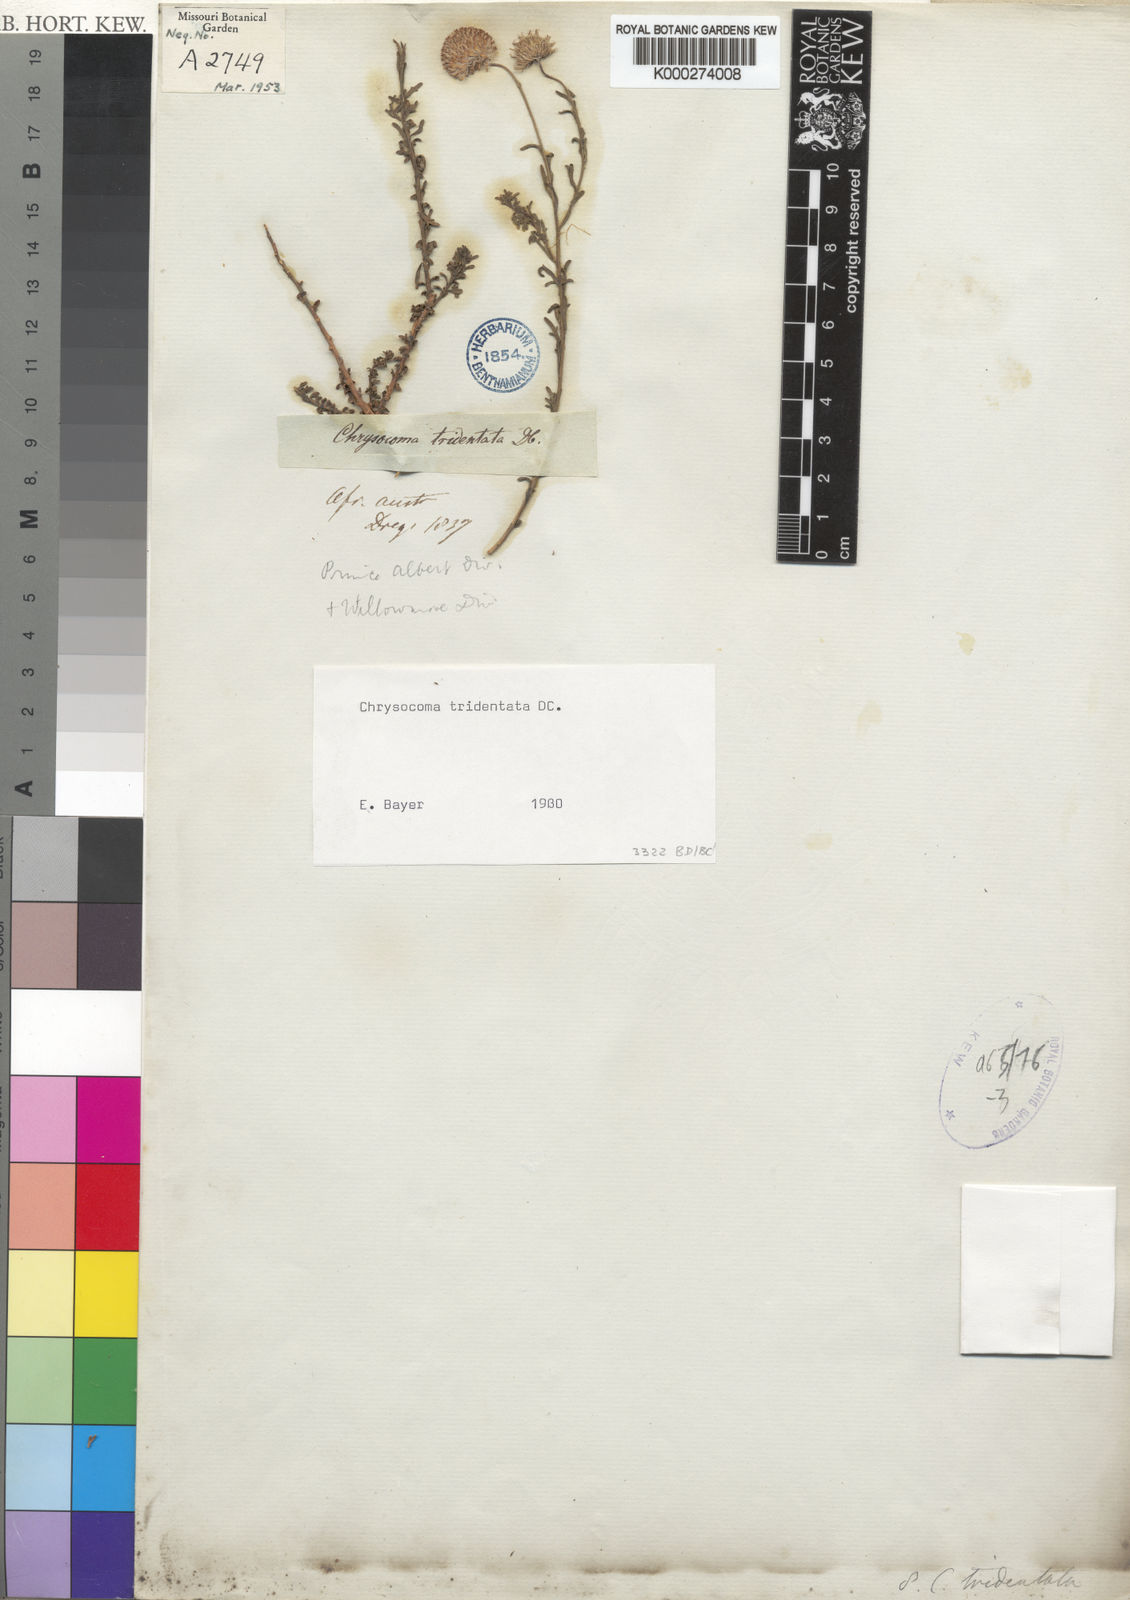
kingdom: Plantae
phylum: Tracheophyta
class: Magnoliopsida
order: Asterales
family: Asteraceae
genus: Chrysocoma
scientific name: Chrysocoma tridentata
